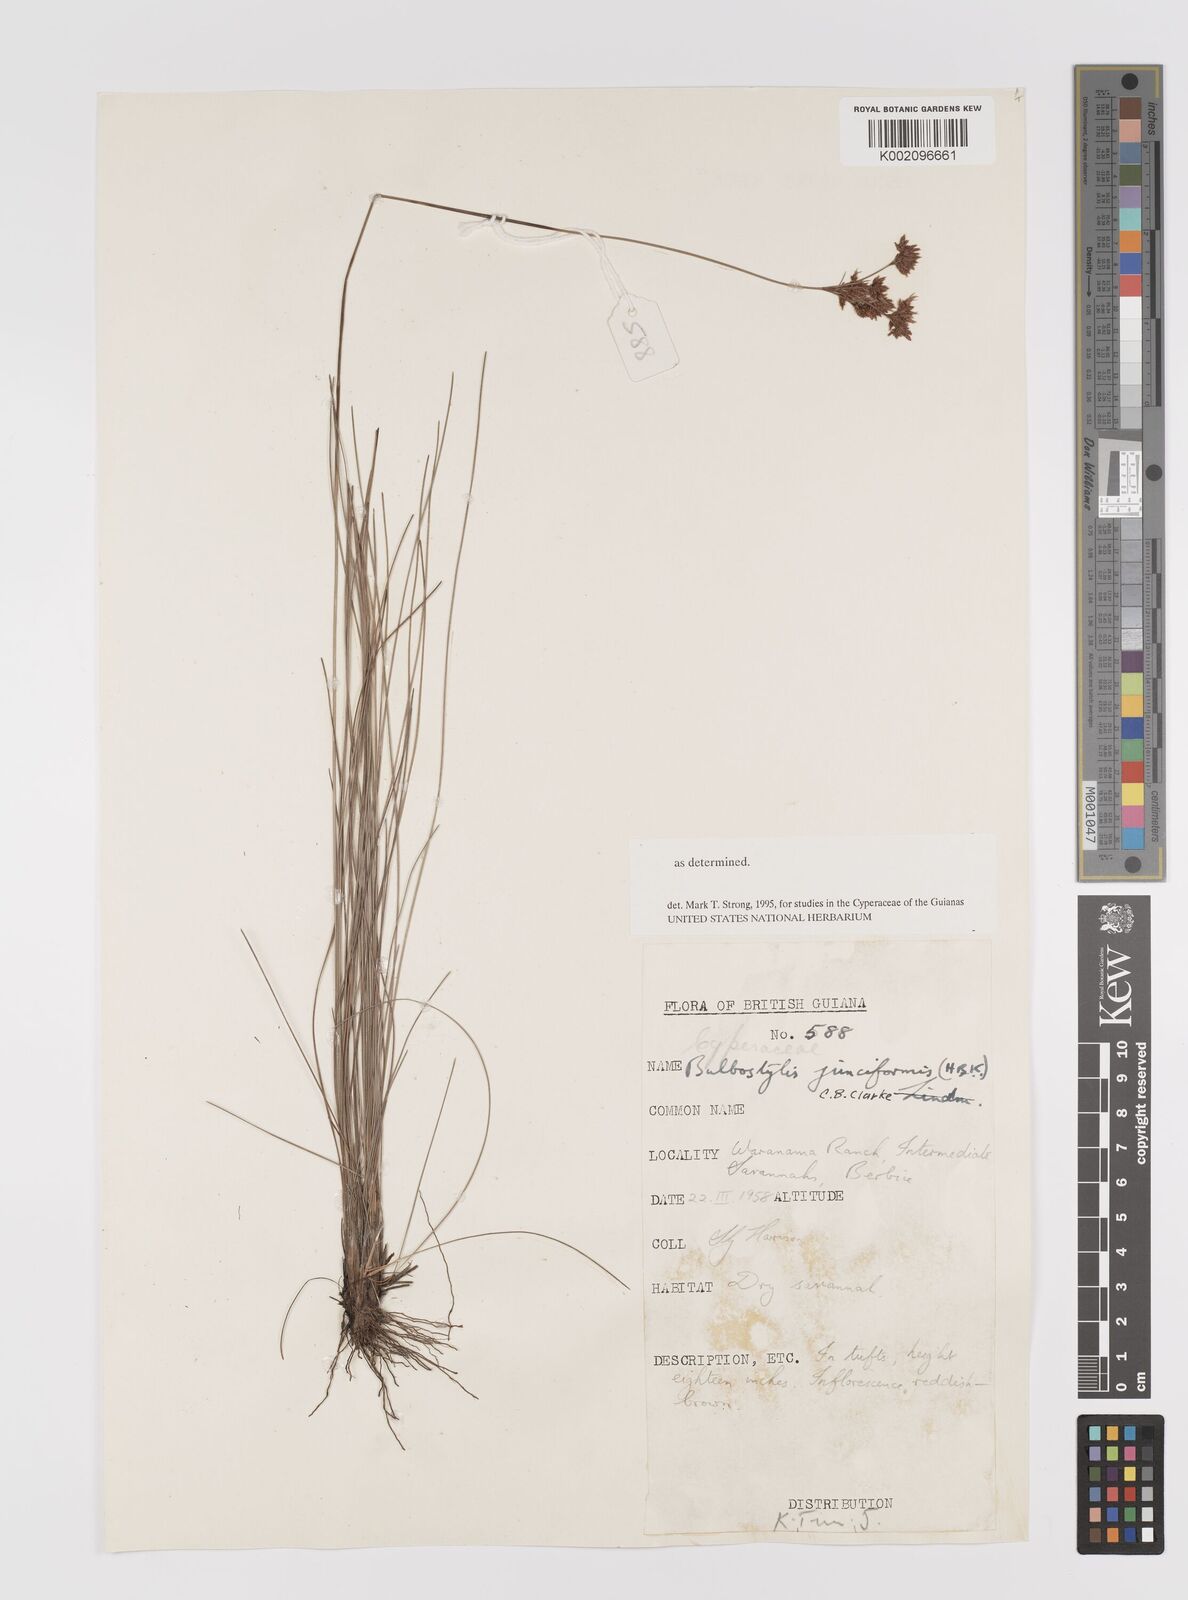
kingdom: Plantae
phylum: Tracheophyta
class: Liliopsida
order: Poales
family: Cyperaceae
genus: Bulbostylis
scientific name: Bulbostylis junciformis
